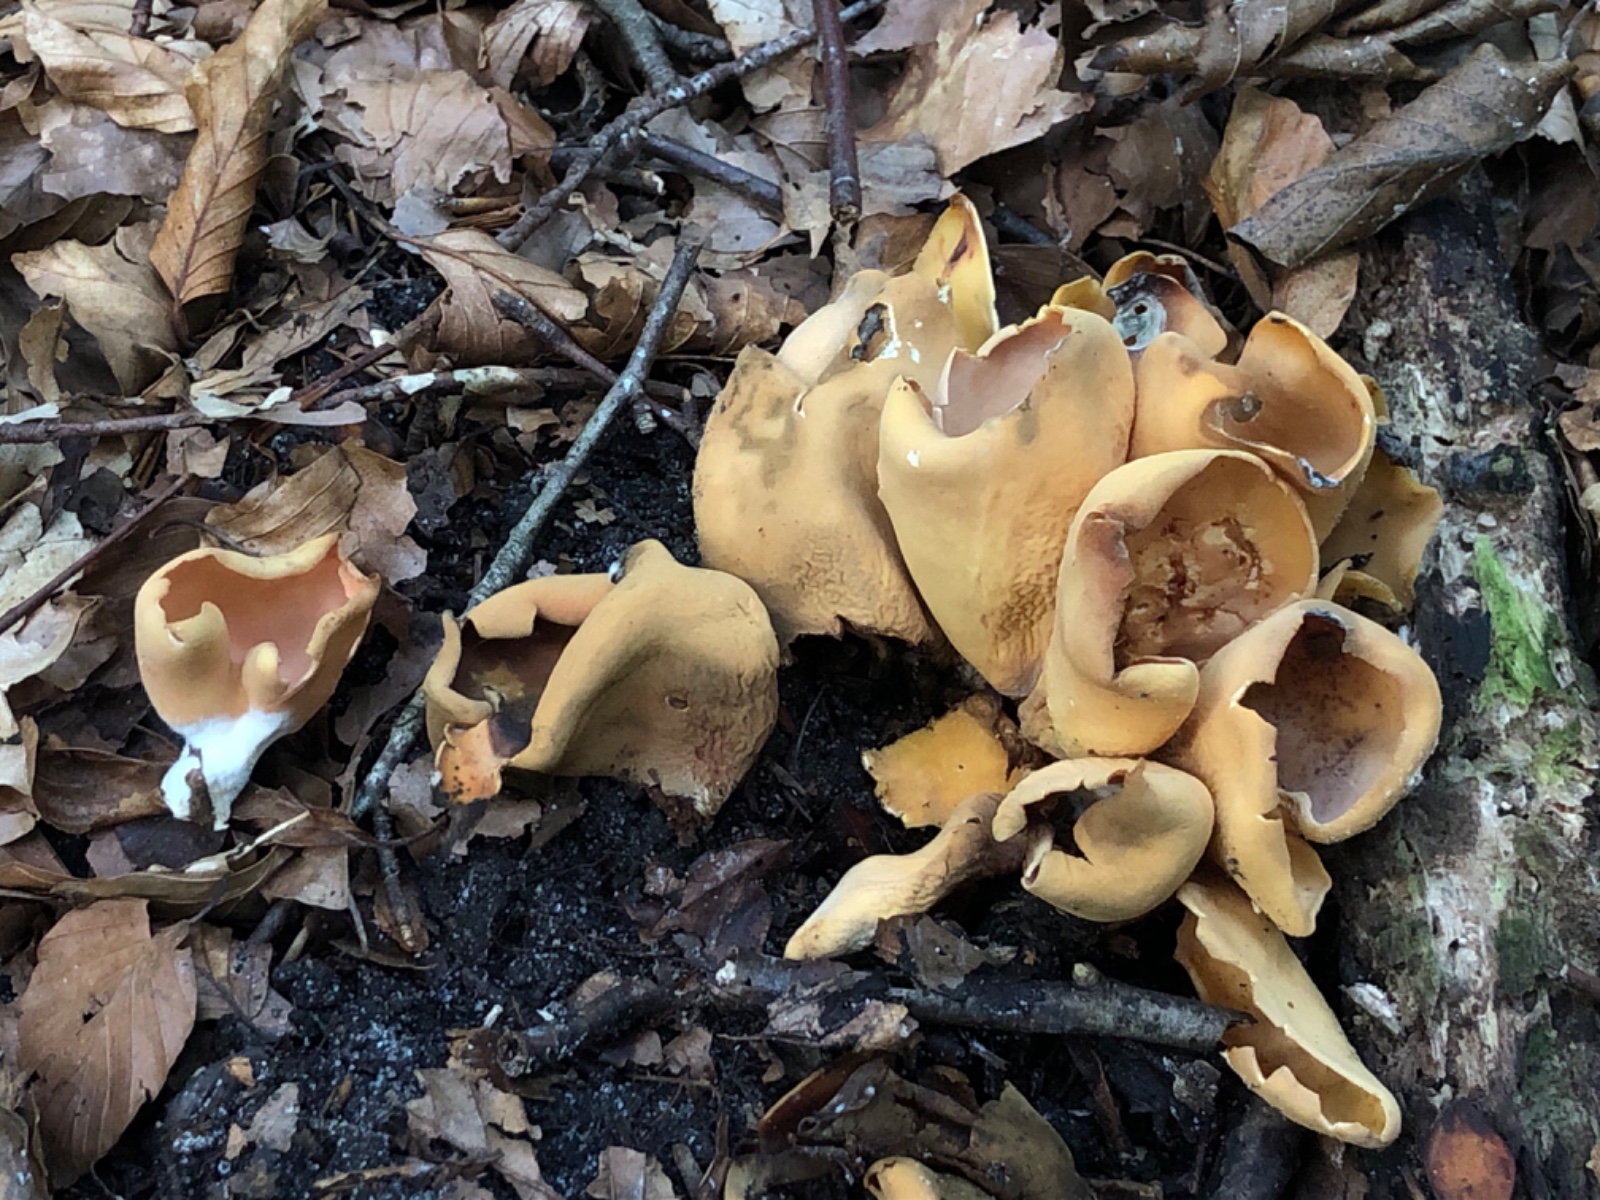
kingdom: Fungi
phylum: Ascomycota
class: Pezizomycetes
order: Pezizales
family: Otideaceae
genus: Otidea
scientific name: Otidea onotica
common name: æsel-ørebæger
